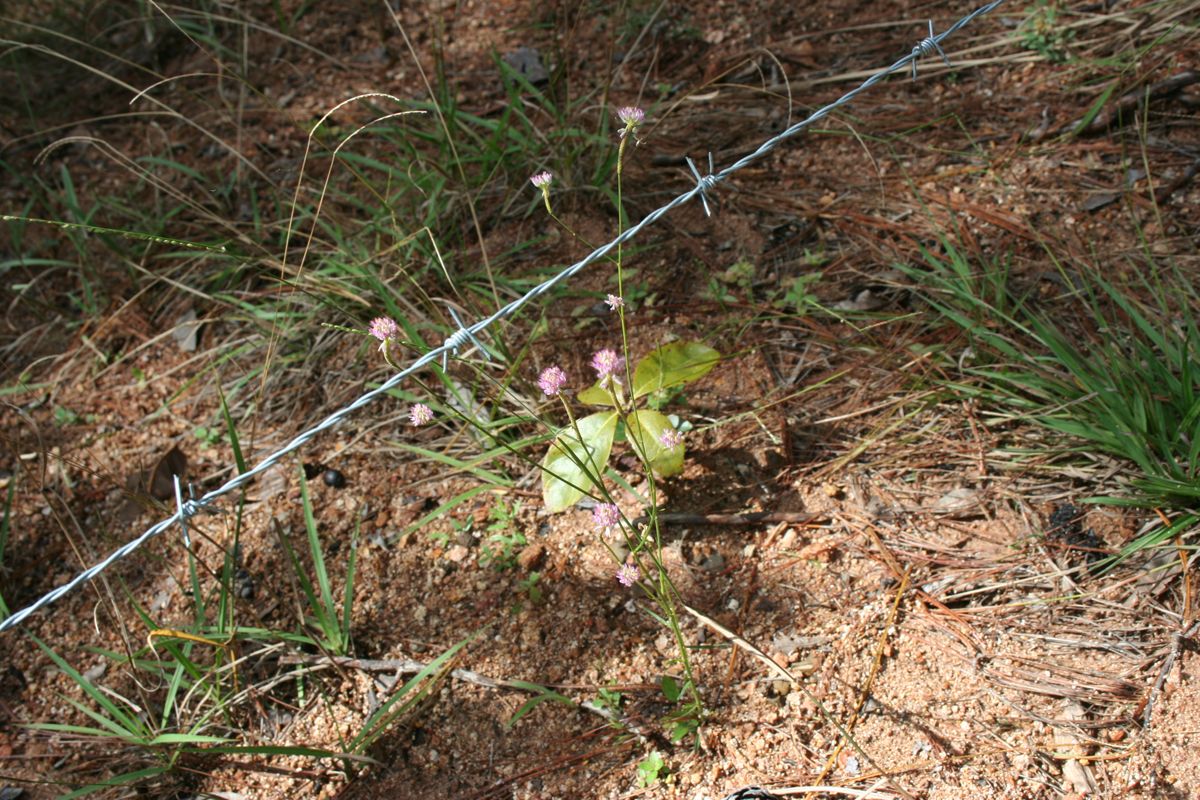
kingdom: Plantae
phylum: Tracheophyta
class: Magnoliopsida
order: Fabales
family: Polygalaceae
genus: Polygala
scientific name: Polygala longicaulis
